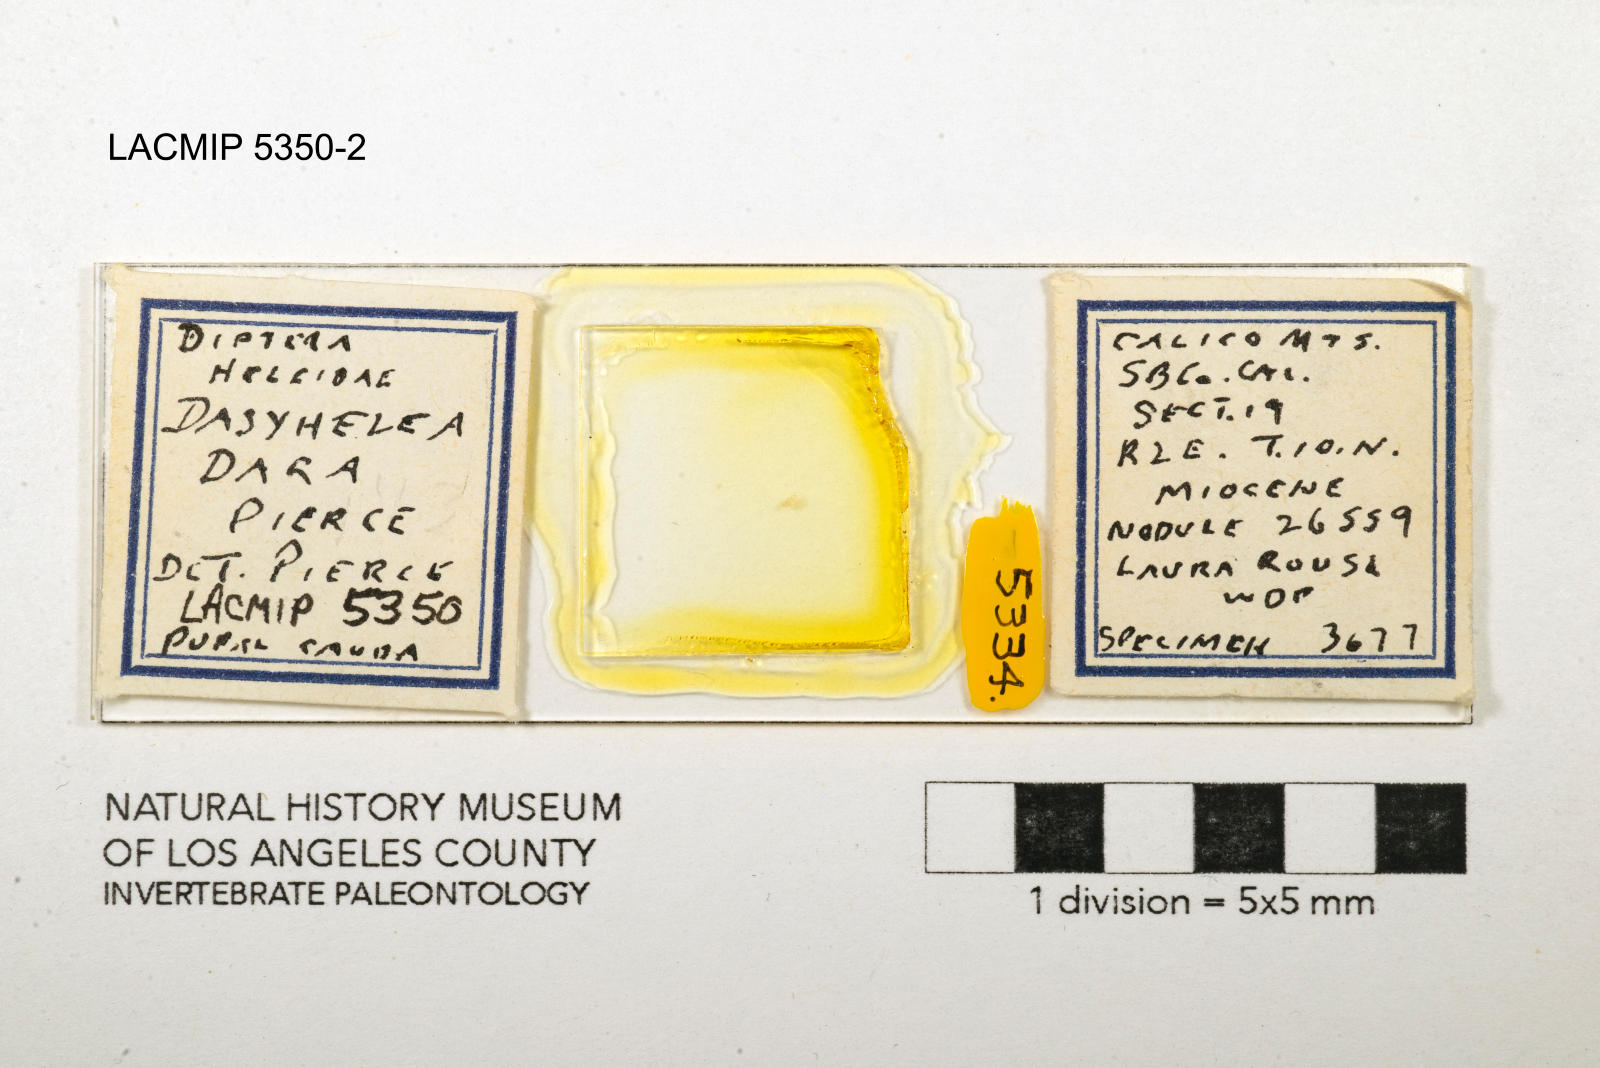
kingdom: Animalia
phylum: Arthropoda
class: Insecta
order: Diptera
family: Ceratopogonidae
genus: Dasyhelea
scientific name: Dasyhelea dara
